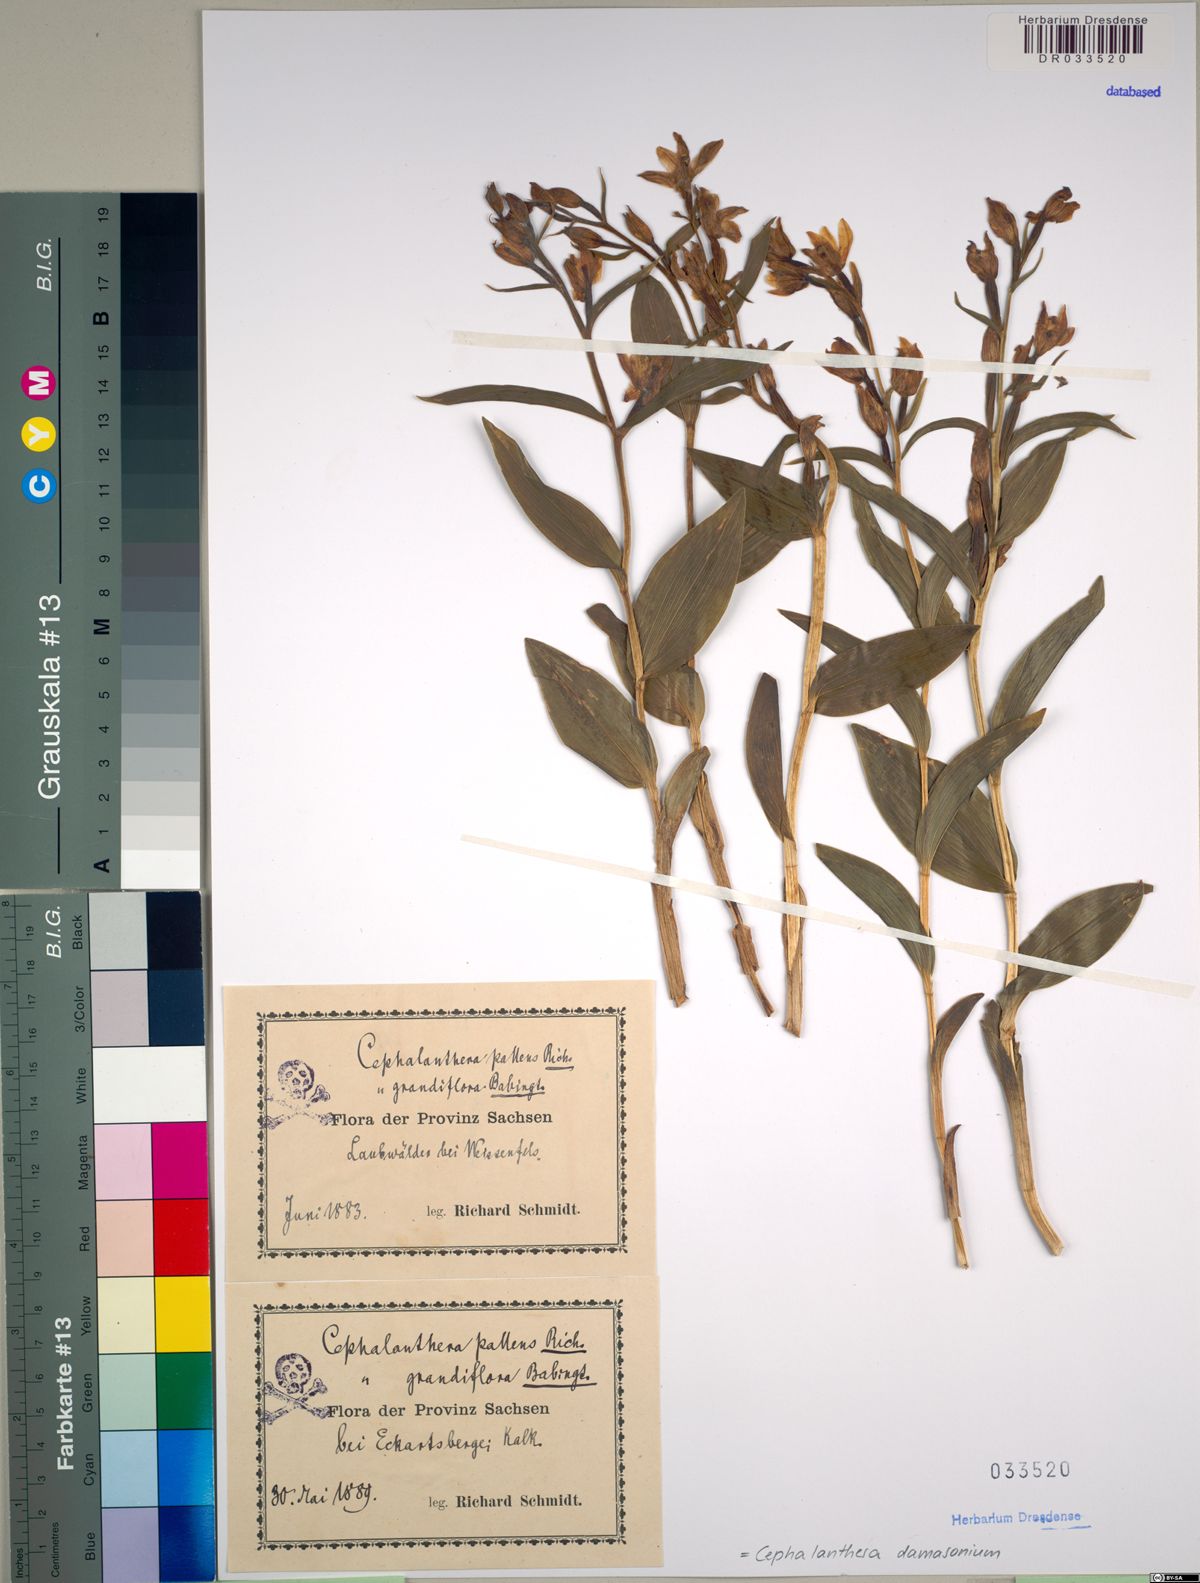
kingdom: Plantae
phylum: Tracheophyta
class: Liliopsida
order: Asparagales
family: Orchidaceae
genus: Cephalanthera
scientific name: Cephalanthera damasonium
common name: White helleborine
